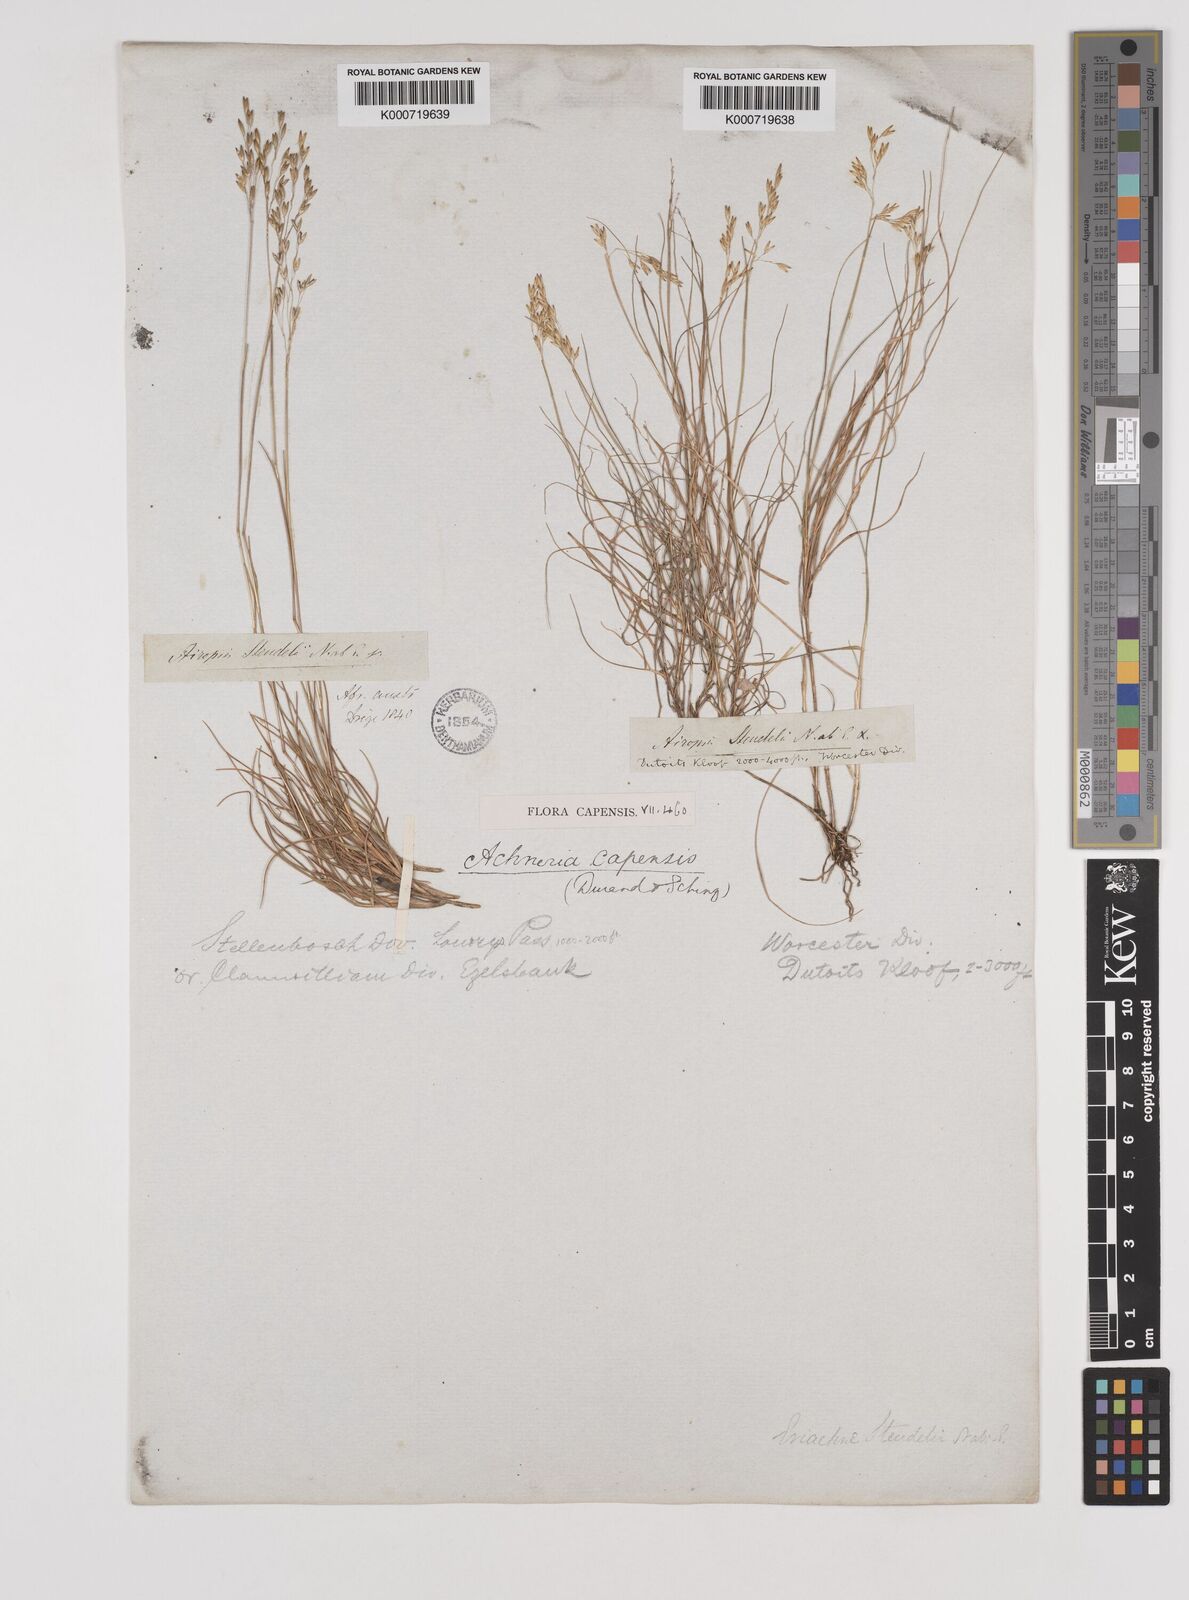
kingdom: Plantae
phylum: Tracheophyta
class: Liliopsida
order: Poales
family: Poaceae
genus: Pentameris
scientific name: Pentameris malouinensis
